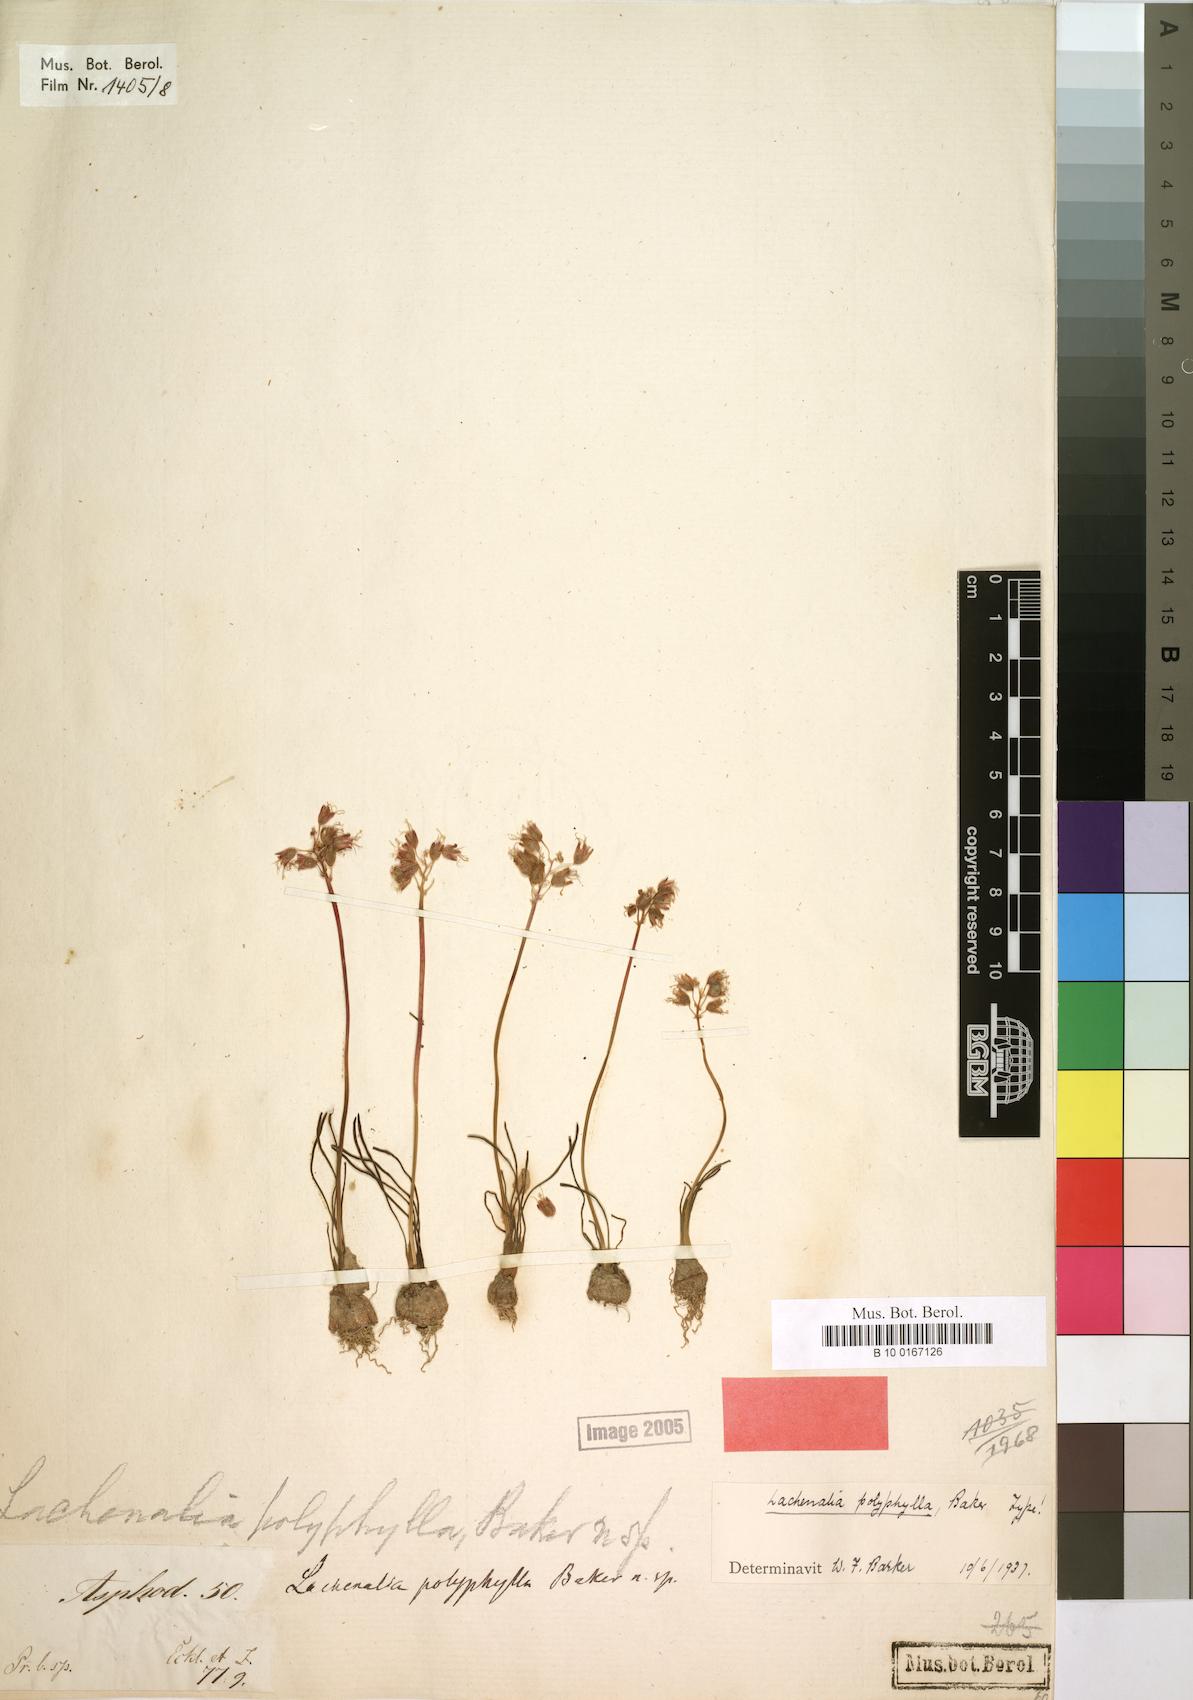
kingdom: Plantae
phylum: Tracheophyta
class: Liliopsida
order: Asparagales
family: Asparagaceae
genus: Lachenalia
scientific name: Lachenalia polyphylla
